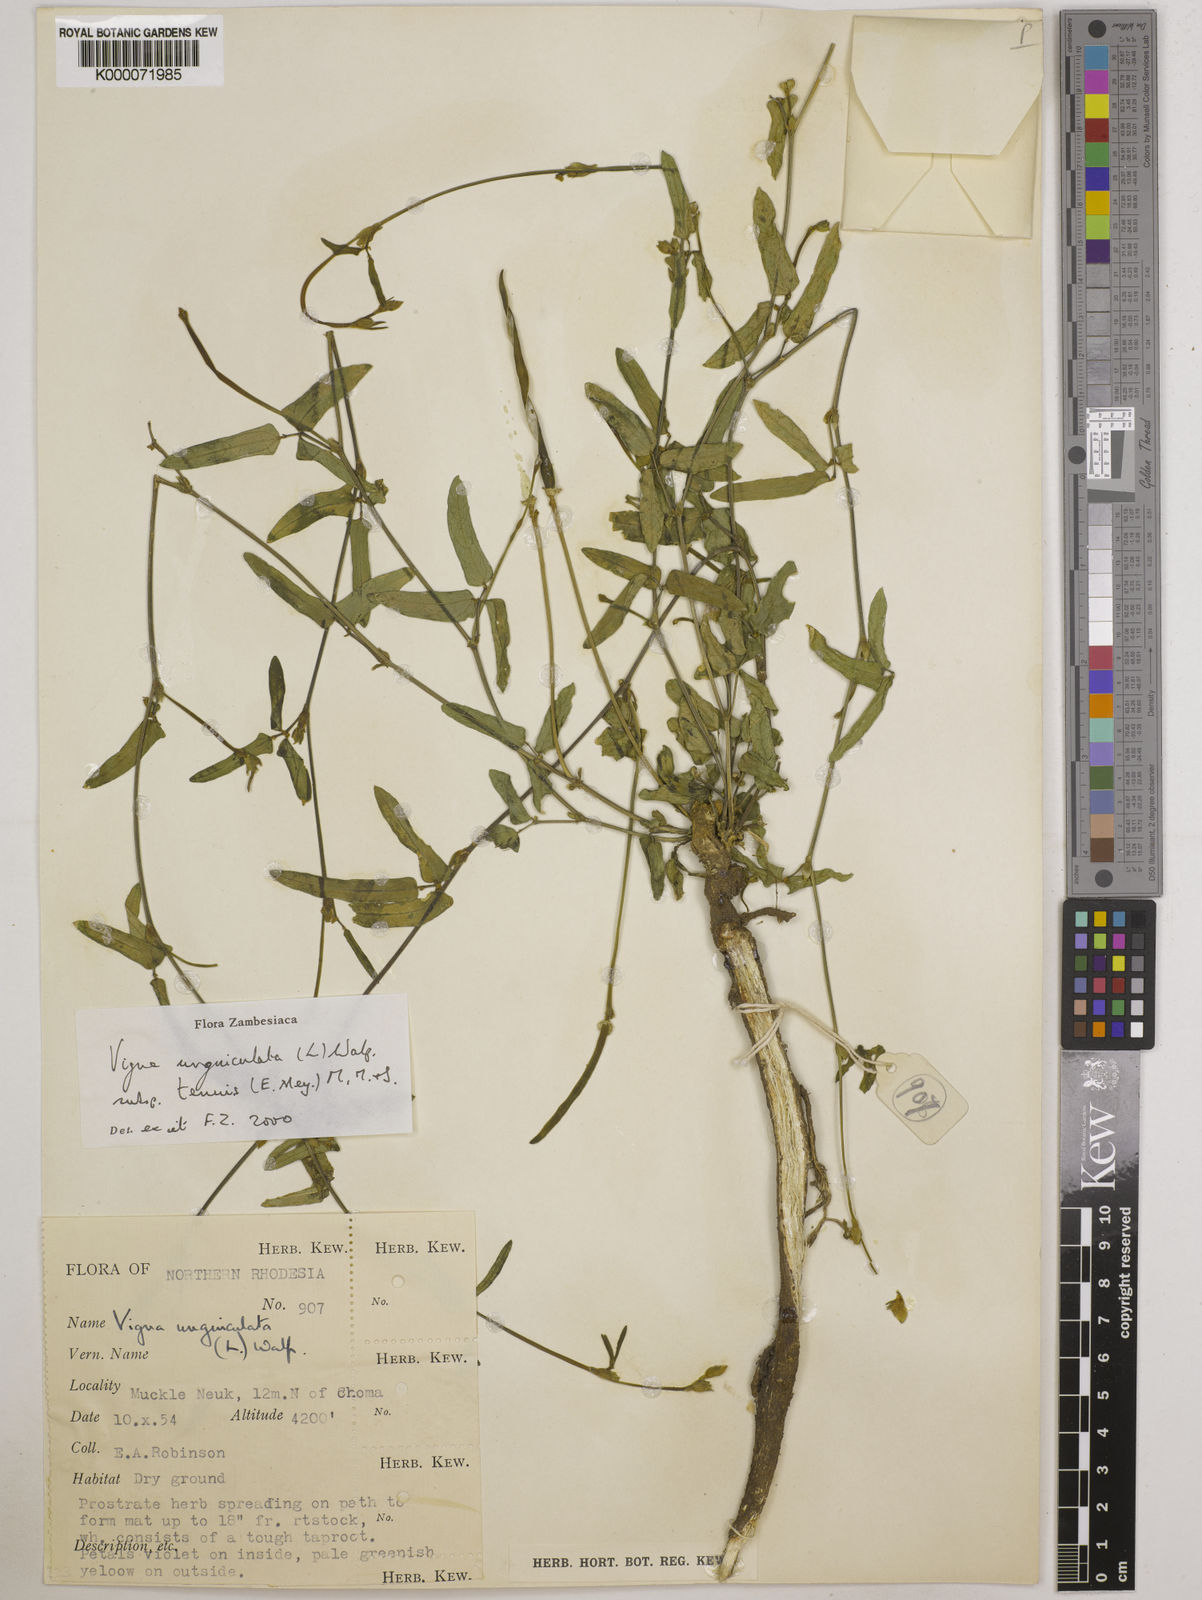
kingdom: Plantae
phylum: Tracheophyta
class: Magnoliopsida
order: Fabales
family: Fabaceae
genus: Vigna
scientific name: Vigna unguiculata
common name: Cowpea
